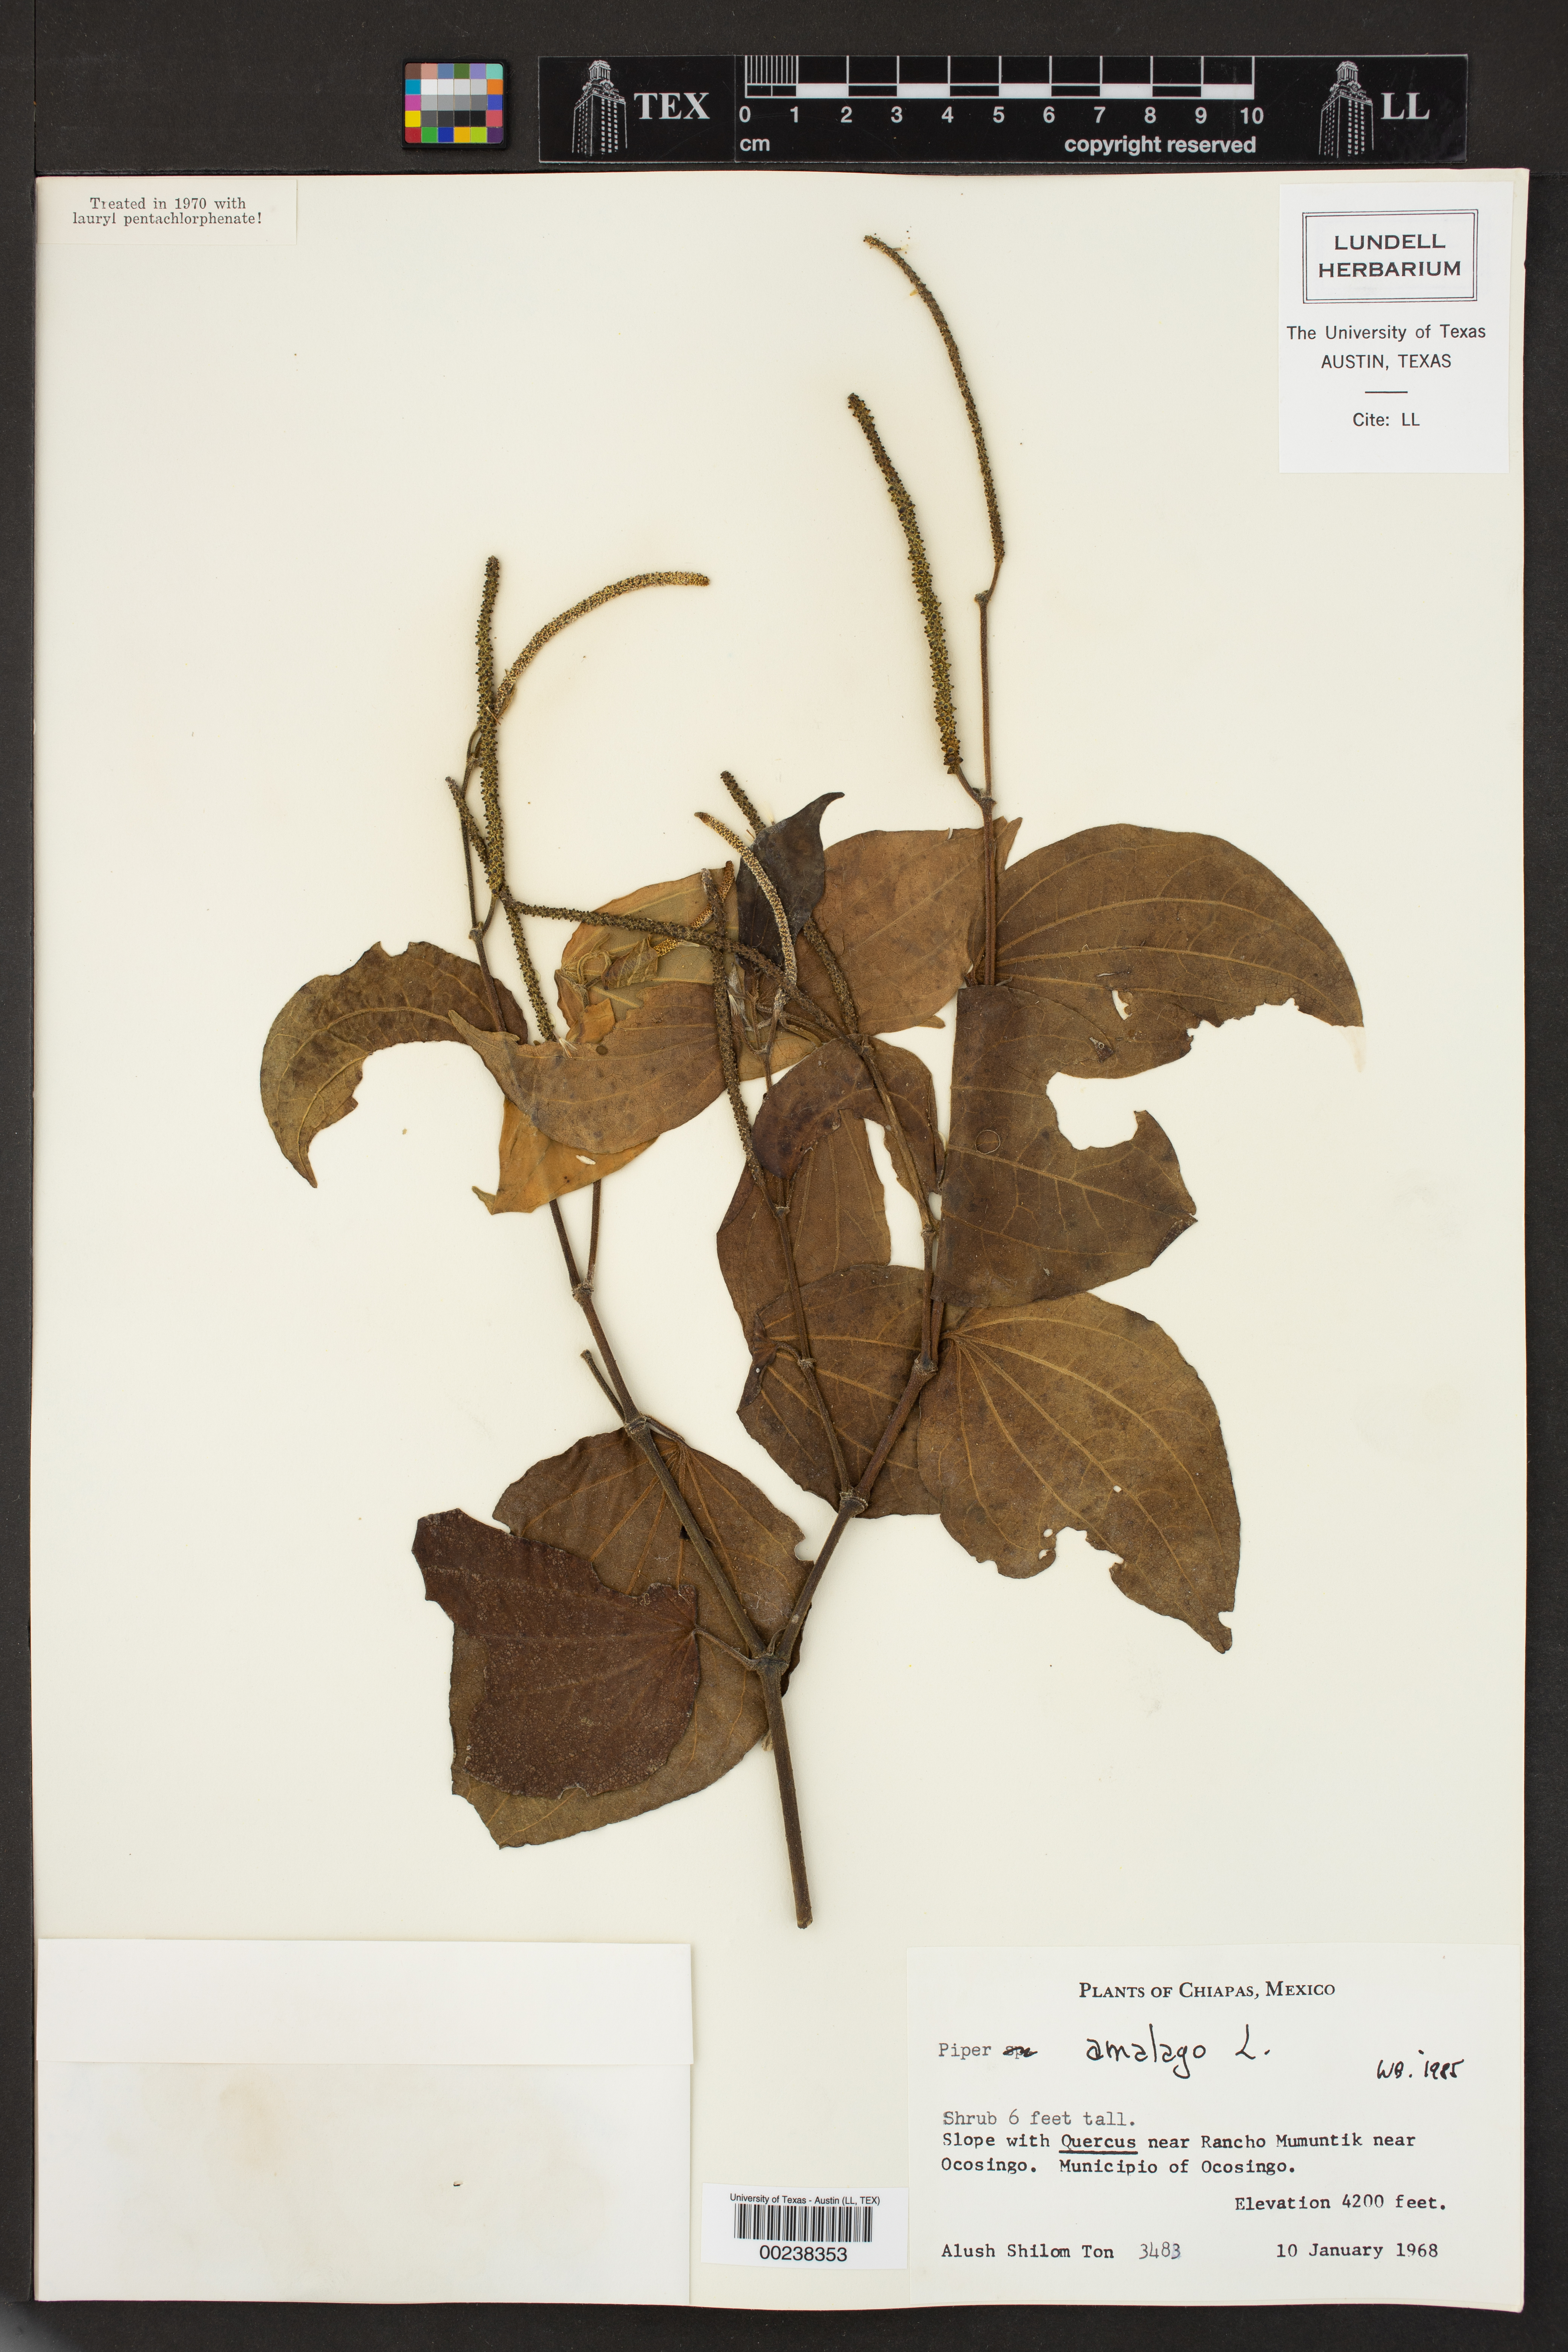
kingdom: Plantae
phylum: Tracheophyta
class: Magnoliopsida
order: Piperales
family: Piperaceae
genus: Piper
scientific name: Piper amalago
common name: Pepper-elder
